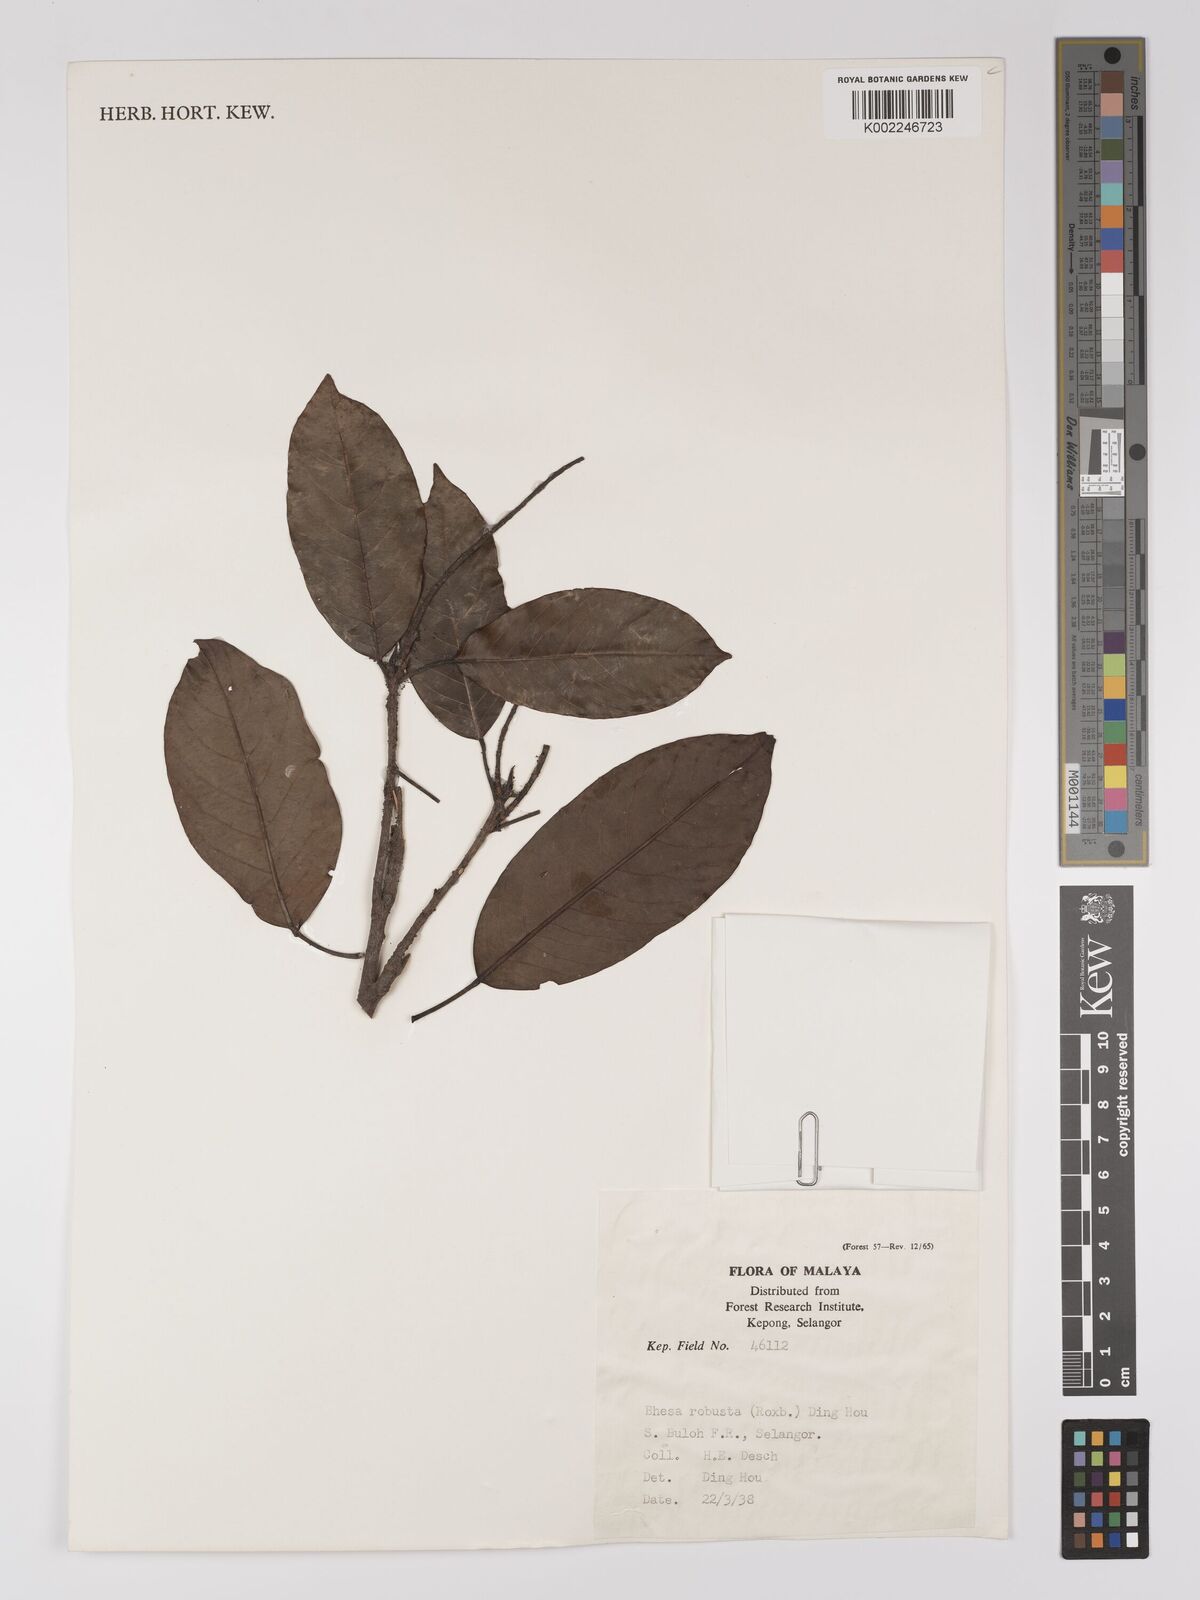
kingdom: Plantae
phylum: Tracheophyta
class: Magnoliopsida
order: Malpighiales
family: Centroplacaceae
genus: Bhesa
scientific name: Bhesa robusta
